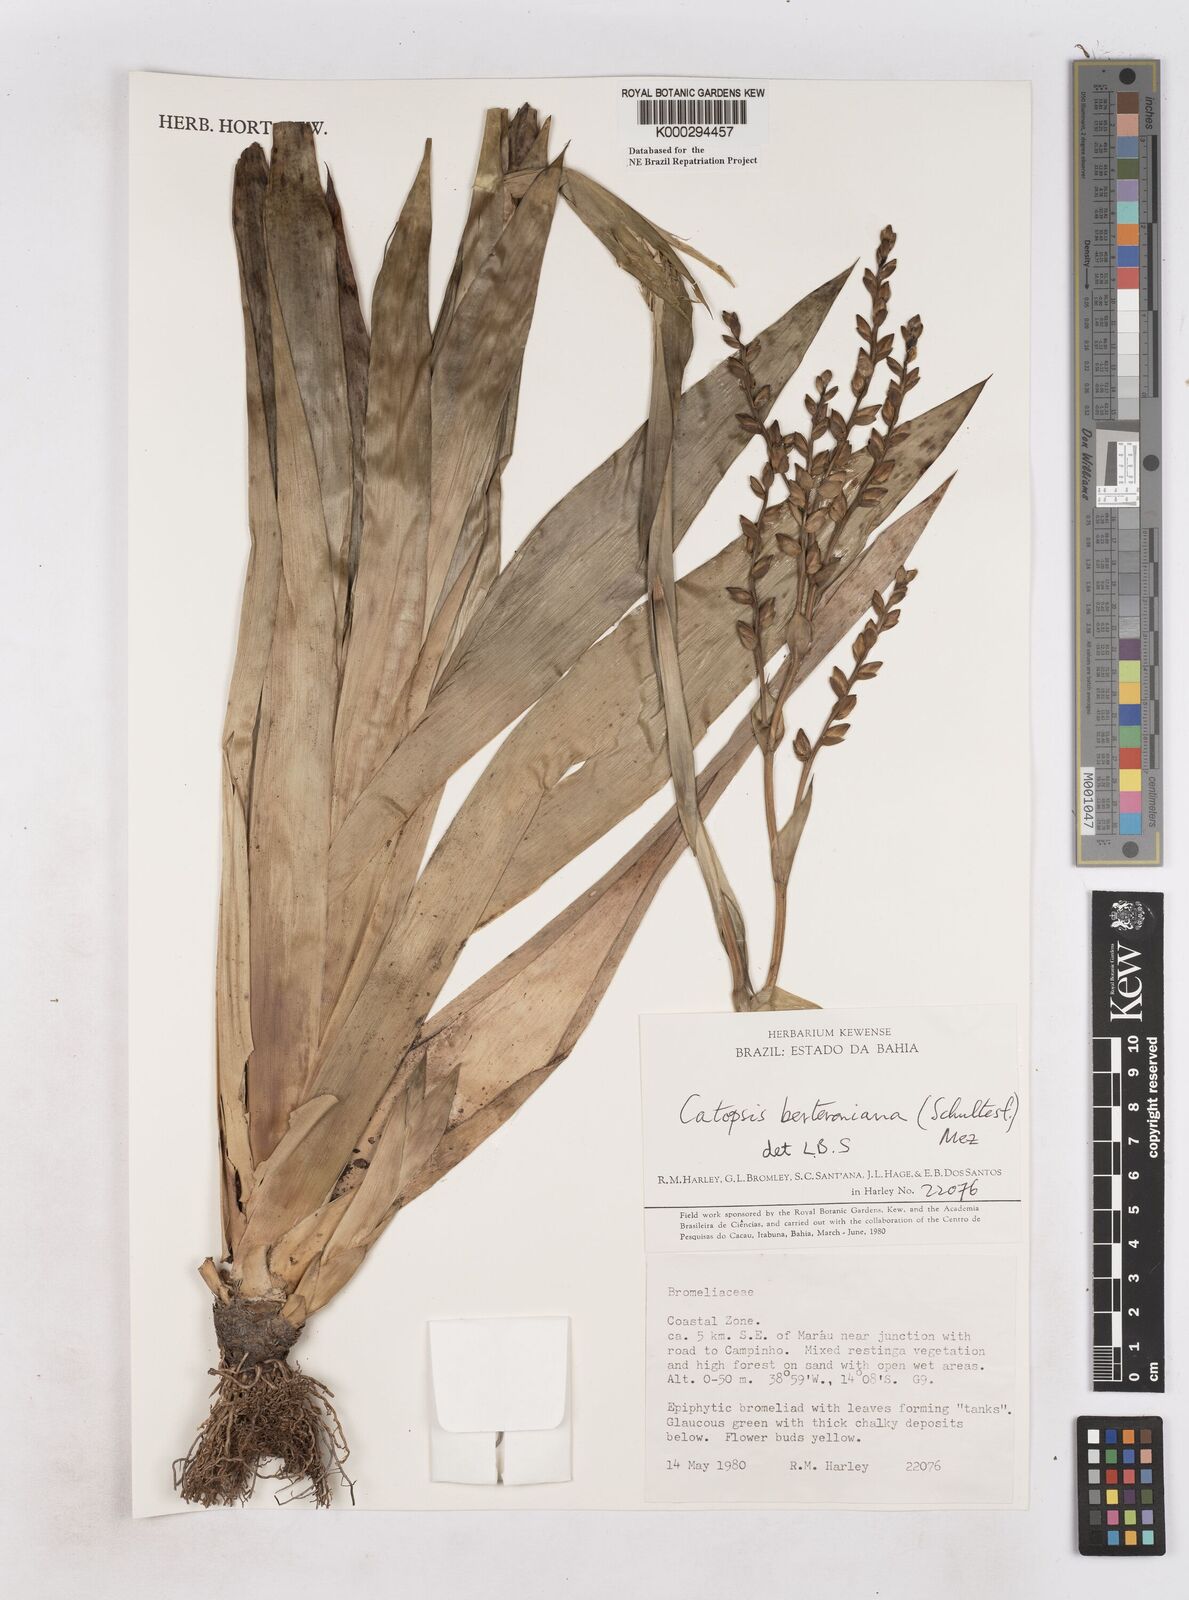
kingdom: Plantae
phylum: Tracheophyta
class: Liliopsida
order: Poales
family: Bromeliaceae
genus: Catopsis
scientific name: Catopsis berteroniana
